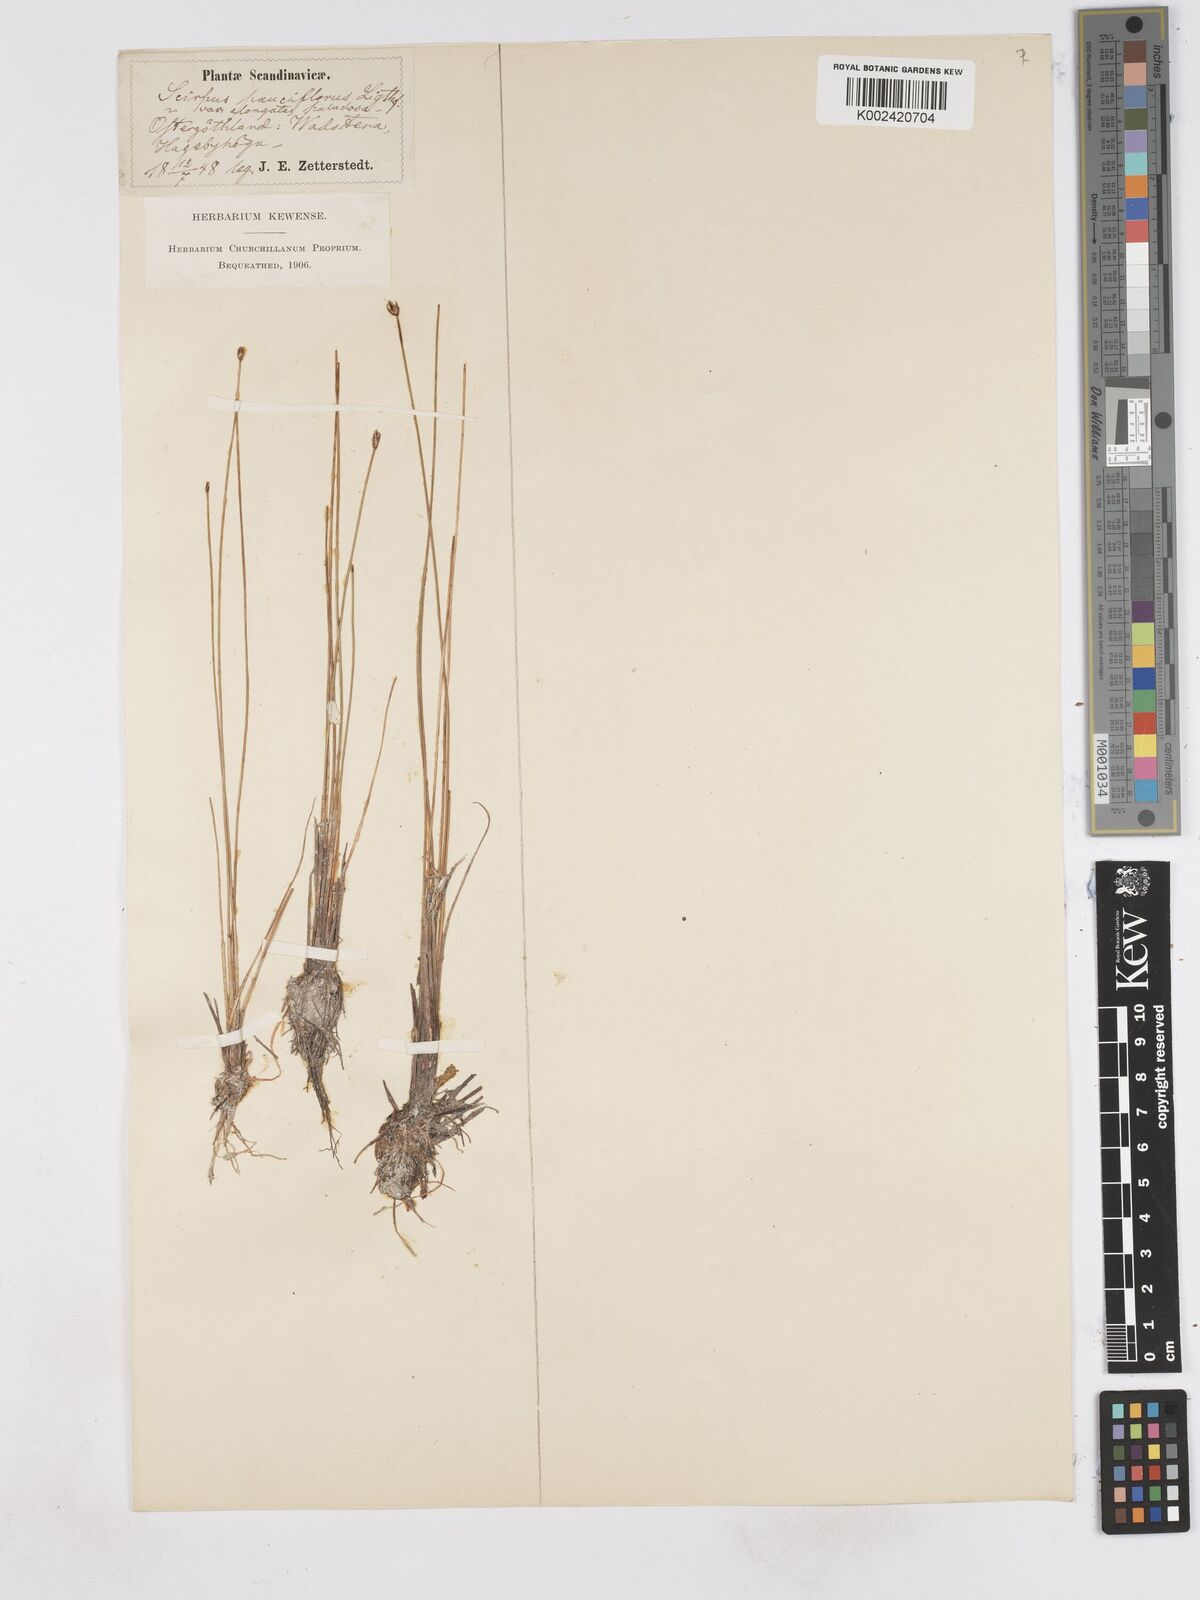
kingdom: Plantae
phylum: Tracheophyta
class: Liliopsida
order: Poales
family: Cyperaceae
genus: Eleocharis
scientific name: Eleocharis quinqueflora
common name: Few-flowered spike-rush
